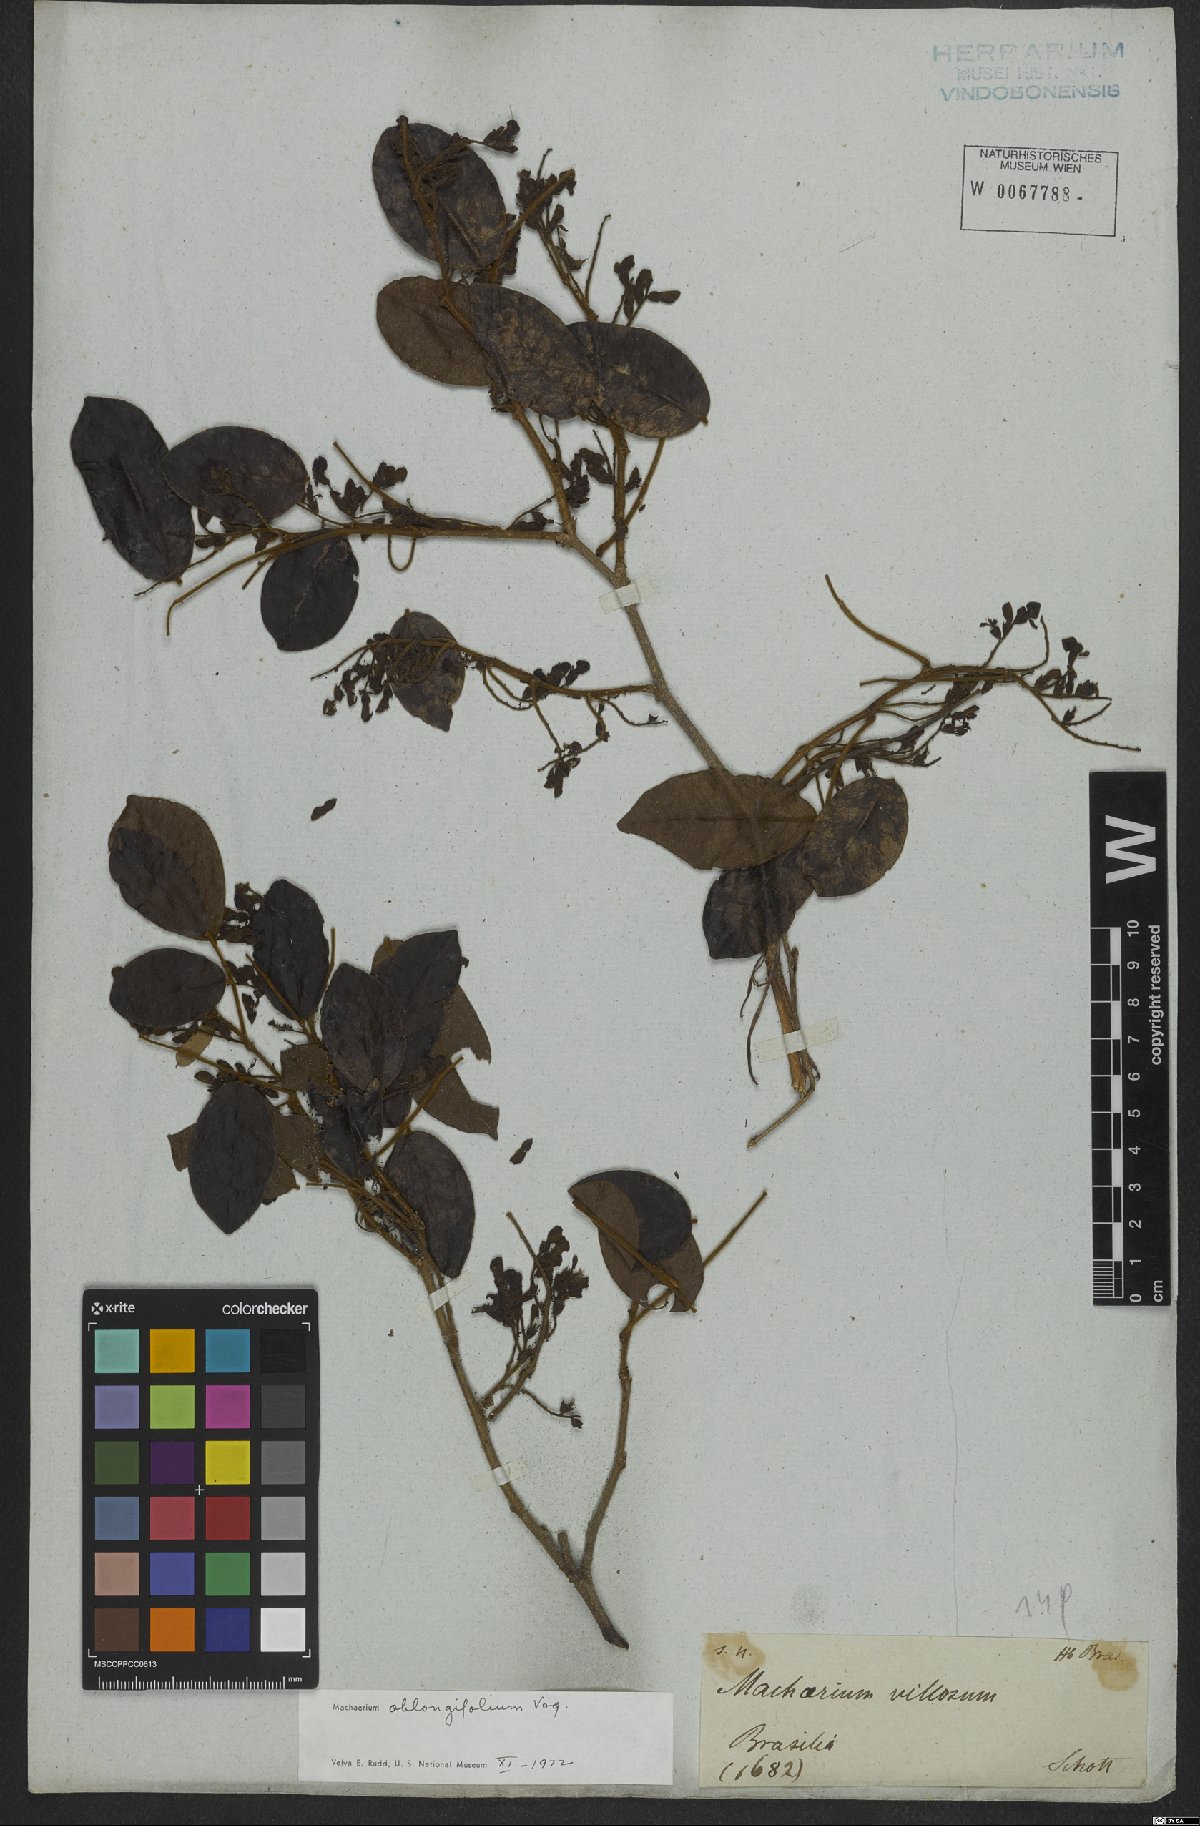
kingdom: Plantae
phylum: Tracheophyta
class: Magnoliopsida
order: Fabales
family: Fabaceae
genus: Machaerium
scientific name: Machaerium oblongifolium
